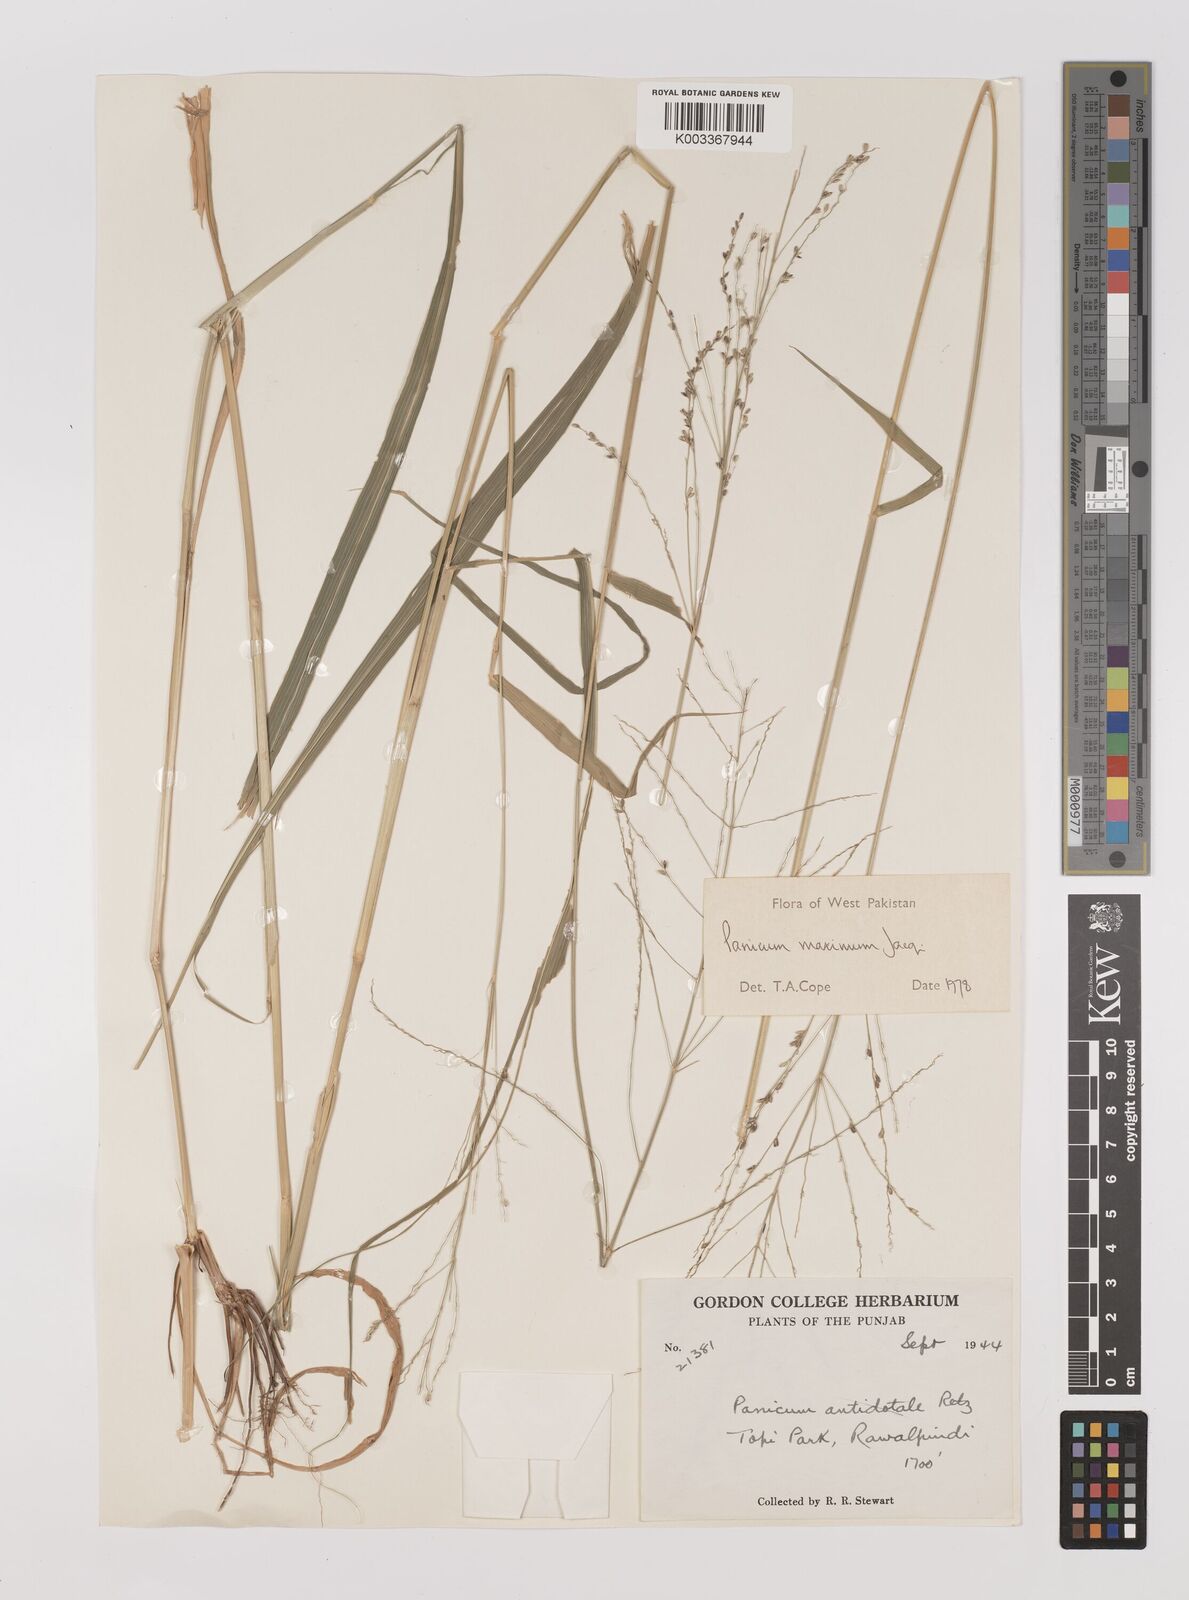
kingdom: Plantae
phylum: Tracheophyta
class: Liliopsida
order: Poales
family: Poaceae
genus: Megathyrsus
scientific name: Megathyrsus maximus
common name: Guineagrass
